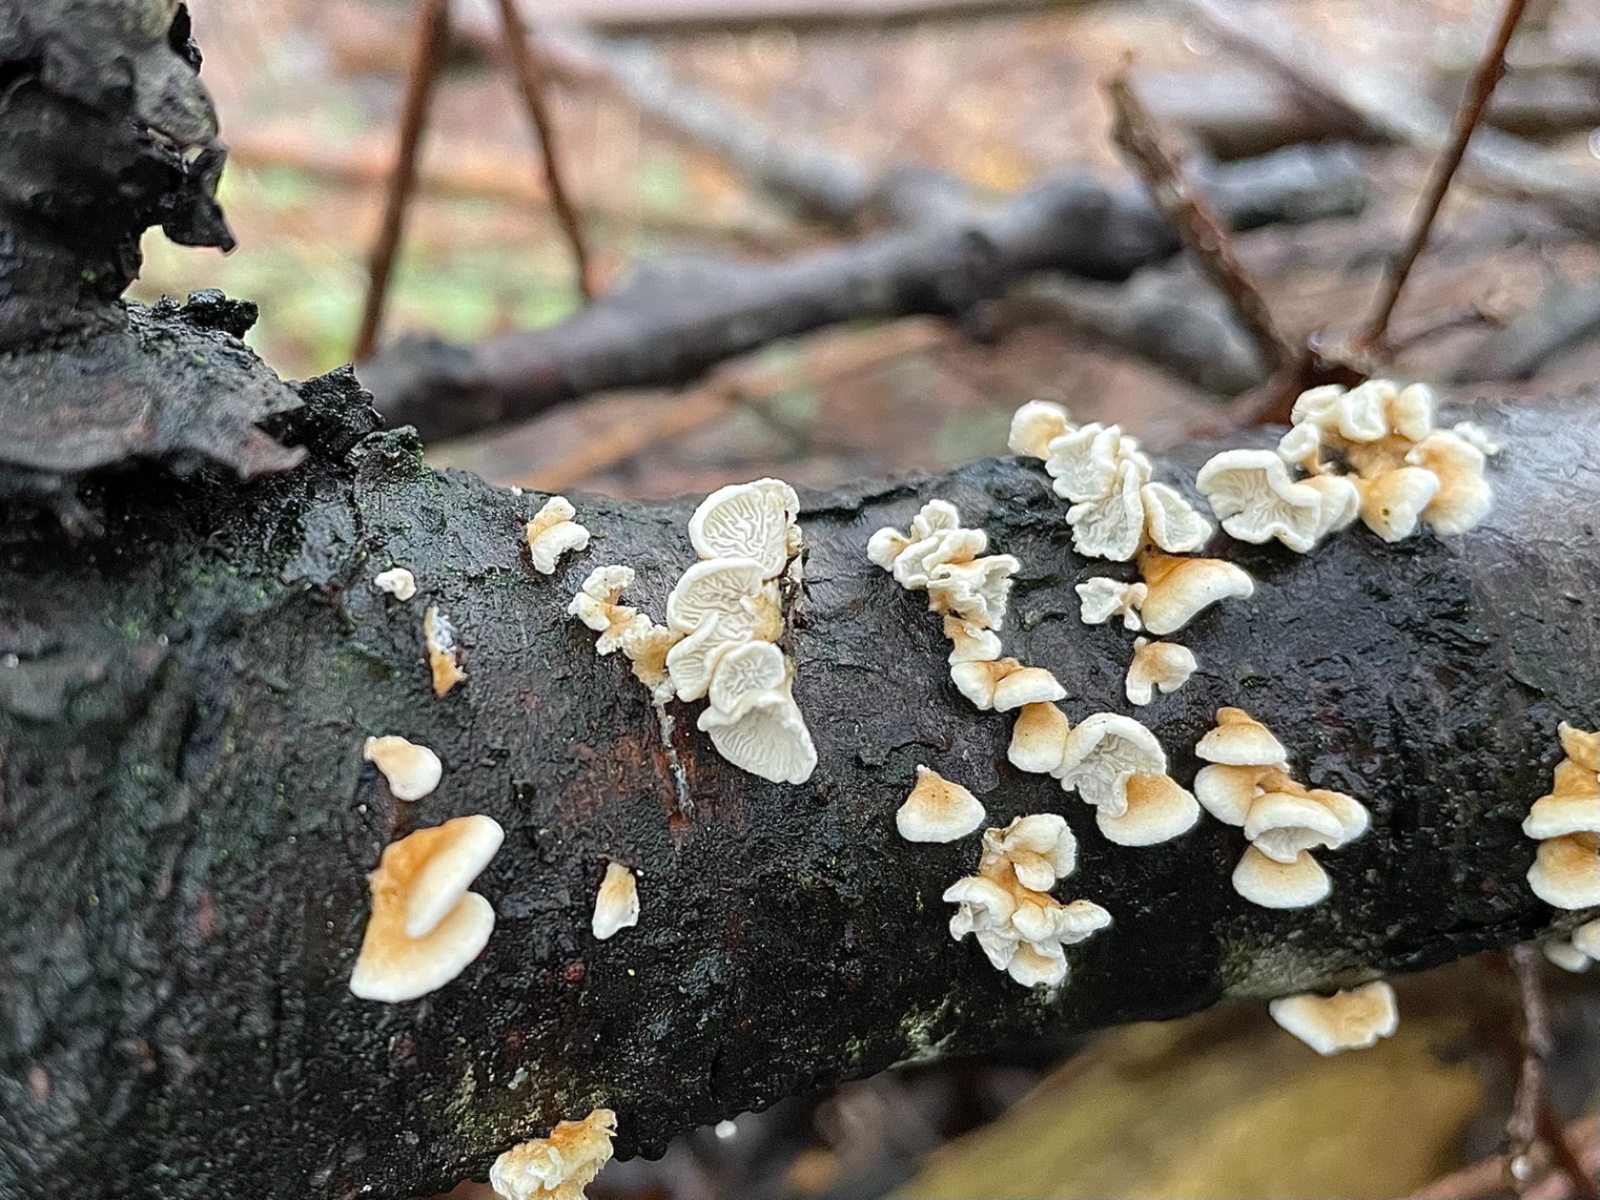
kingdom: Fungi
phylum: Basidiomycota
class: Agaricomycetes
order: Amylocorticiales
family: Amylocorticiaceae
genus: Plicaturopsis
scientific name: Plicaturopsis crispa
